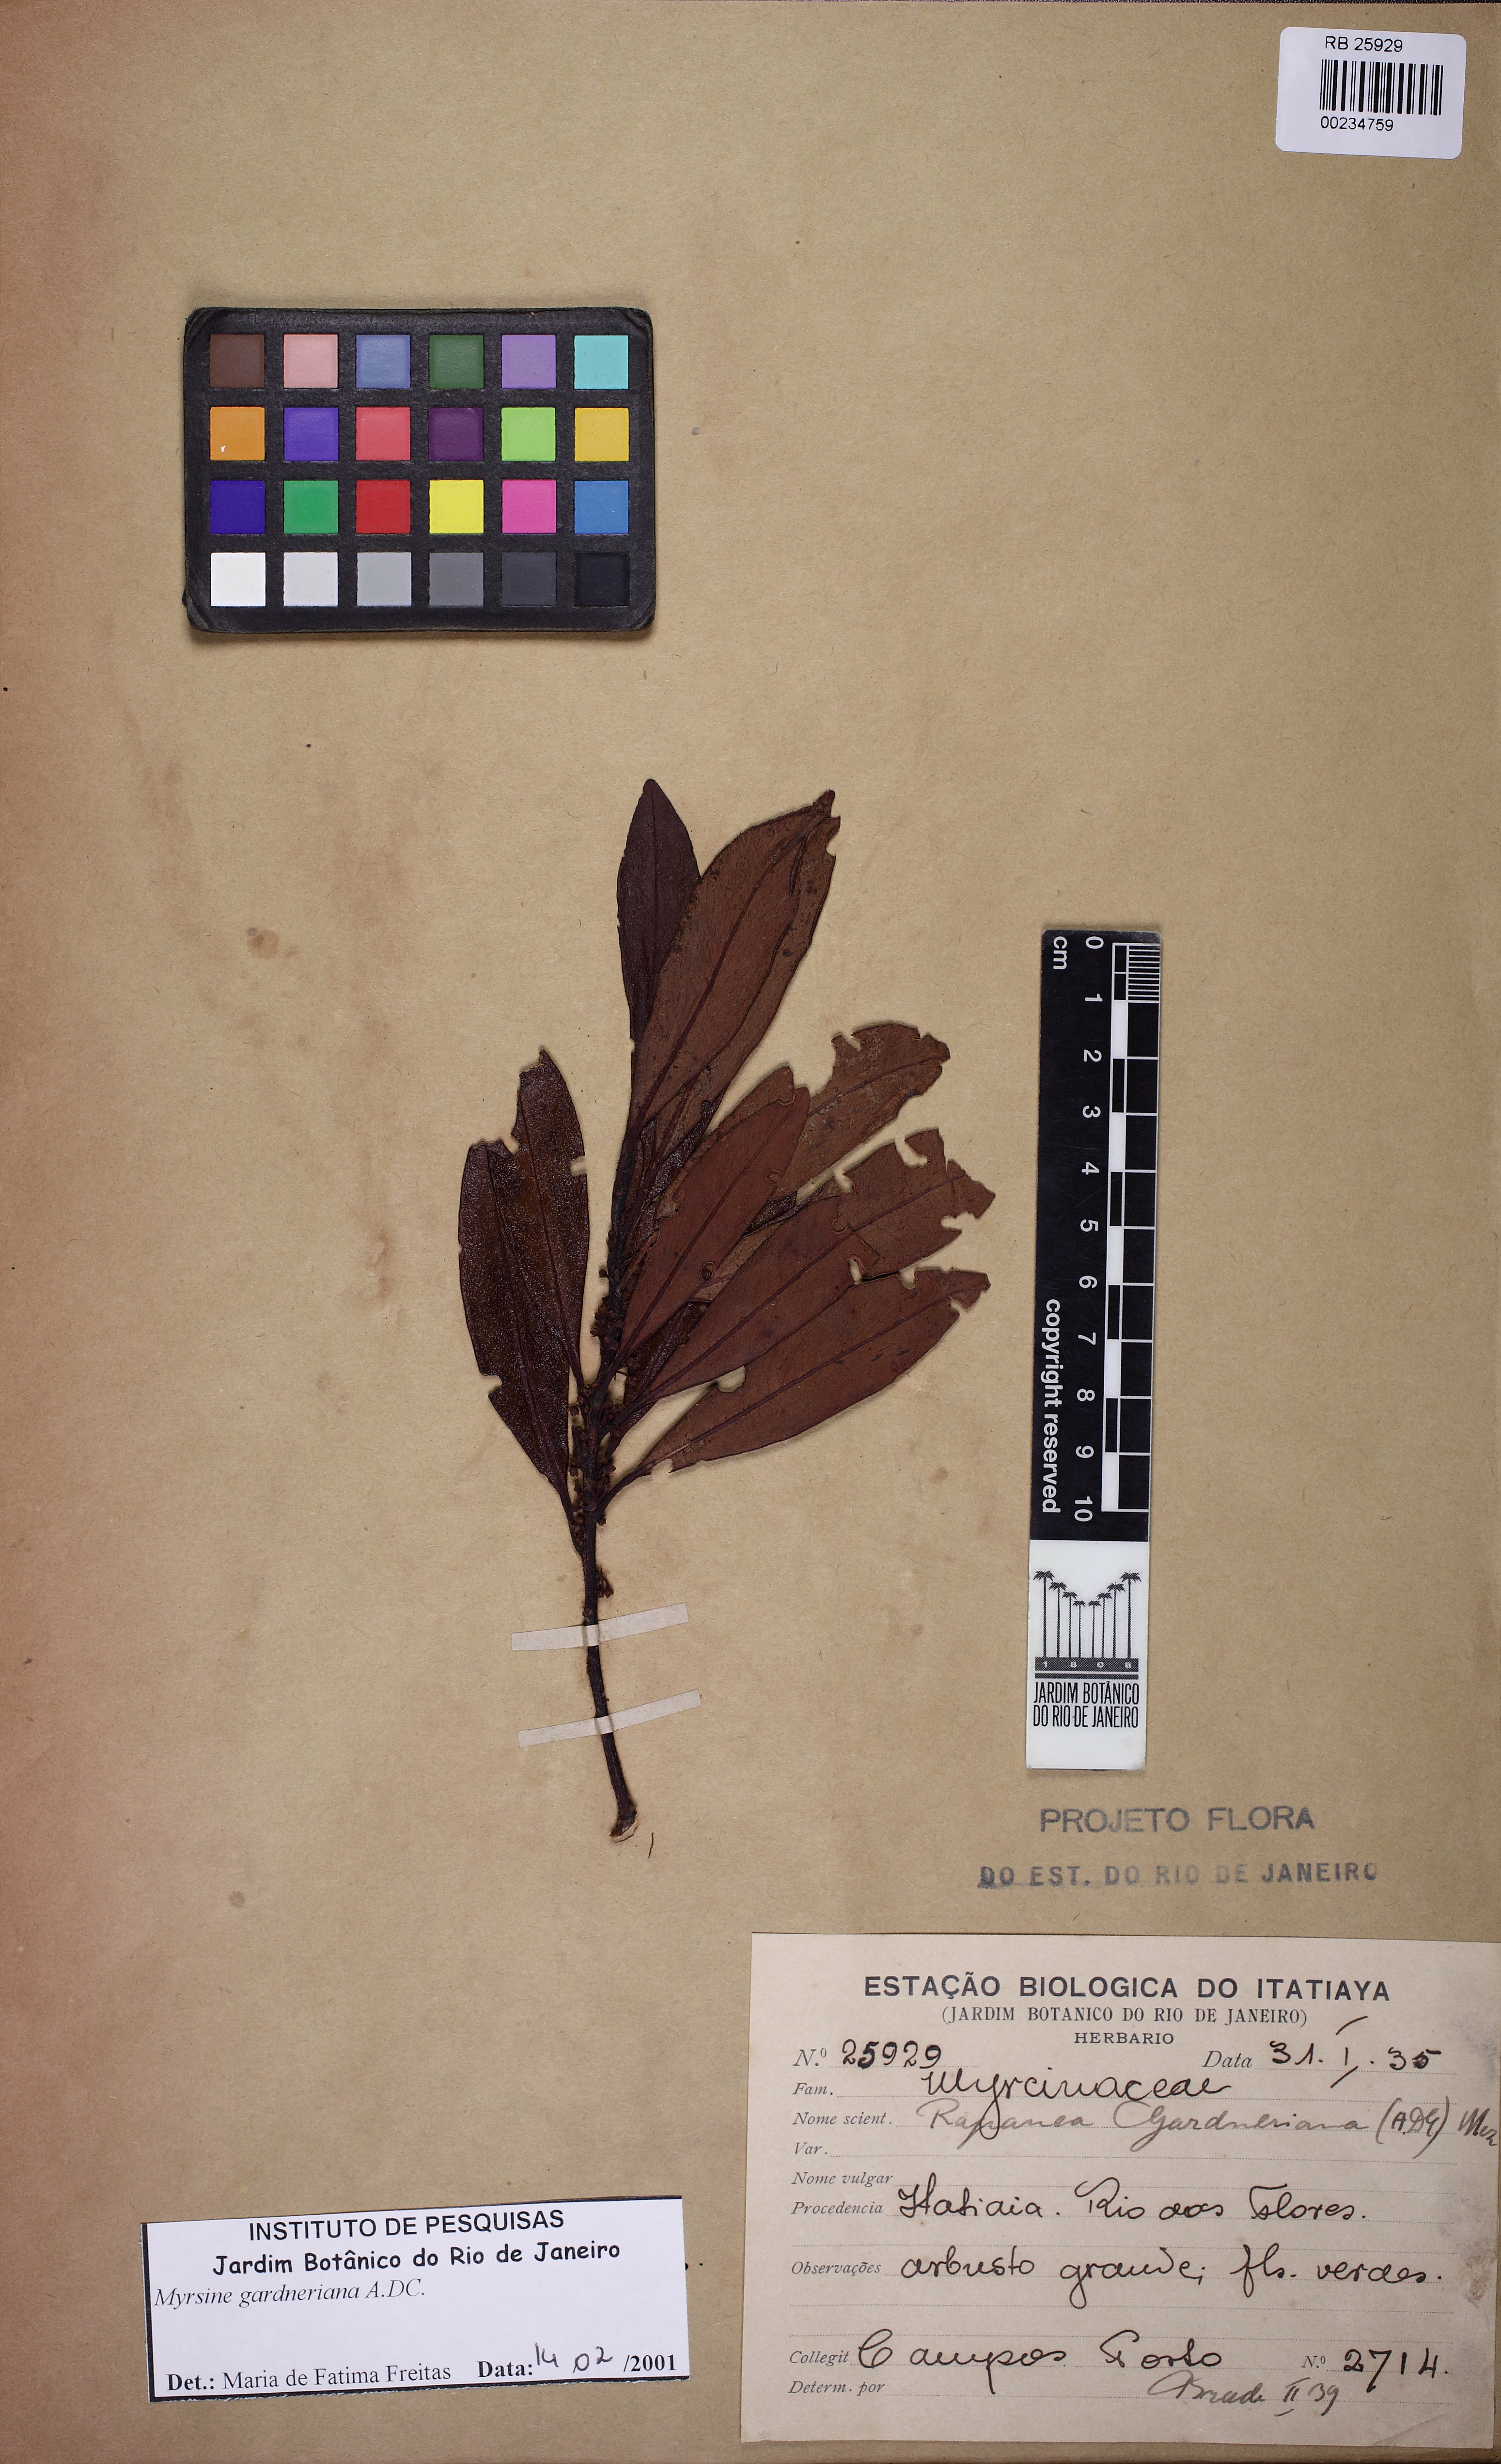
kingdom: Plantae
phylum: Tracheophyta
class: Magnoliopsida
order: Ericales
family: Primulaceae
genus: Myrsine
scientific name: Myrsine gardneriana
